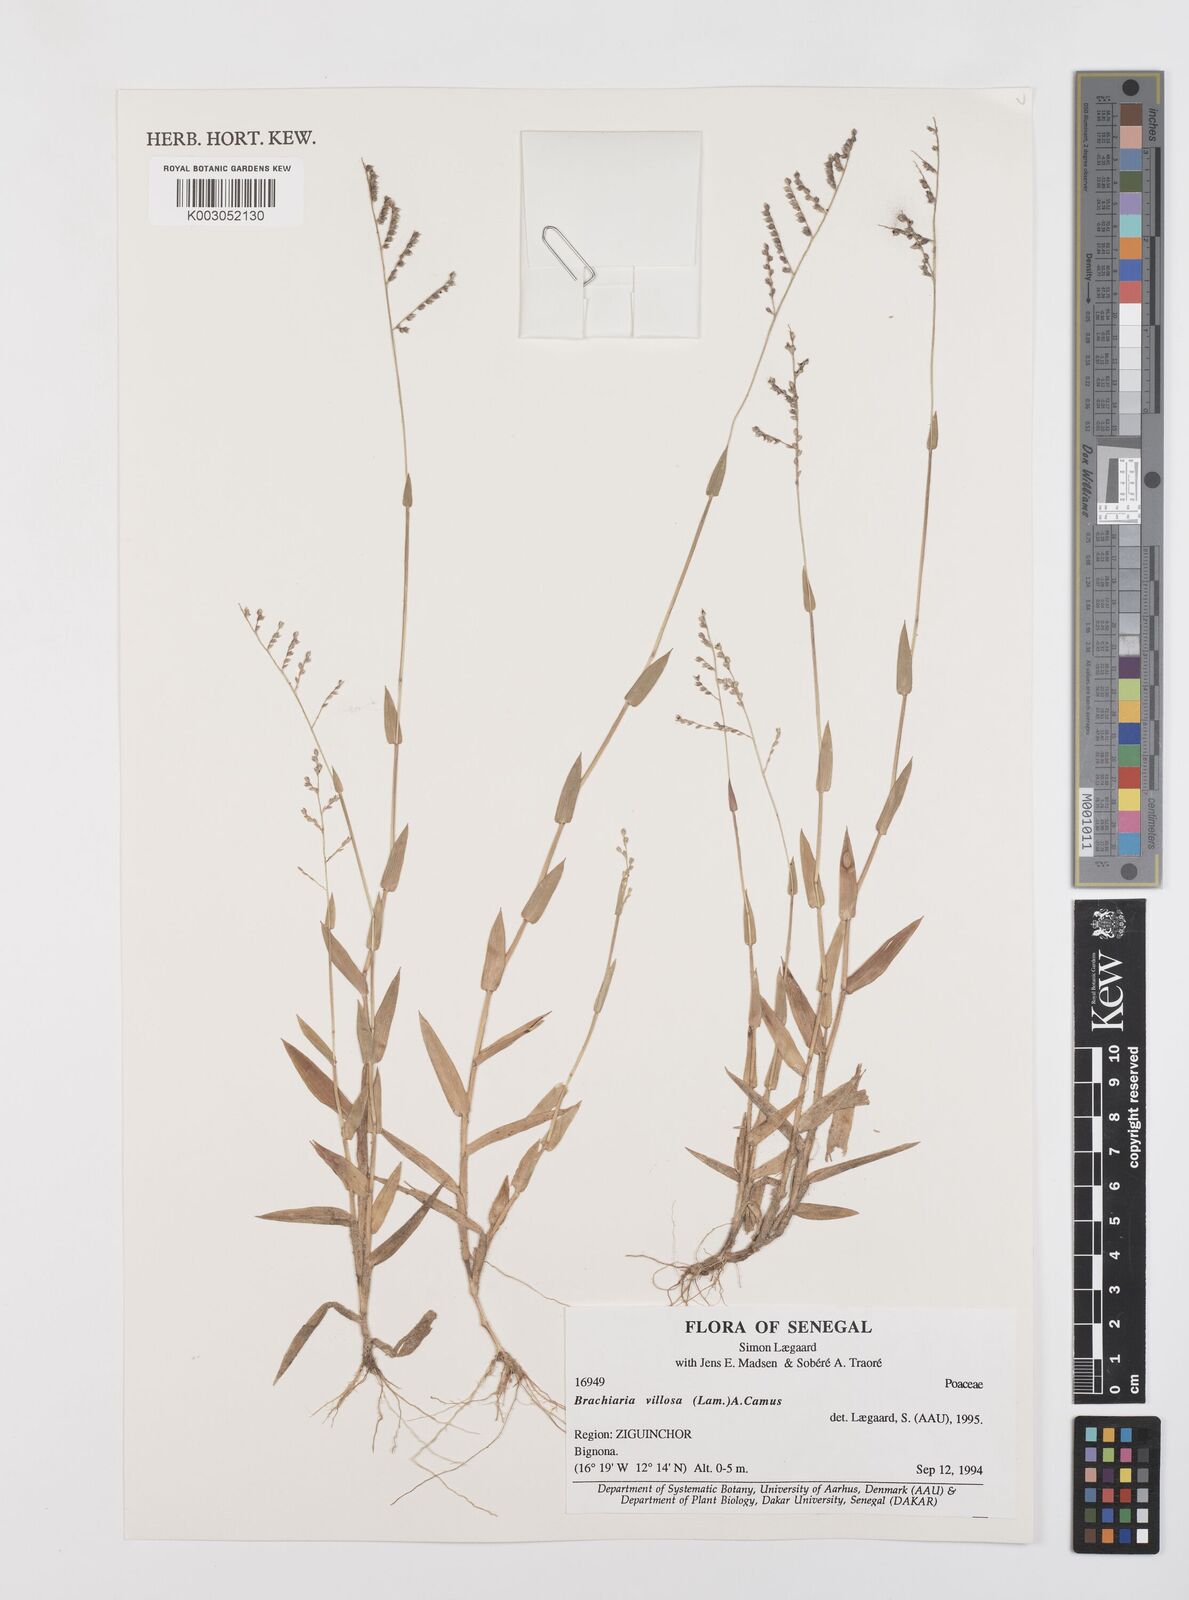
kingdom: Plantae
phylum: Tracheophyta
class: Liliopsida
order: Poales
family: Poaceae
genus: Urochloa
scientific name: Urochloa villosa
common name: Hairy signalgrass
